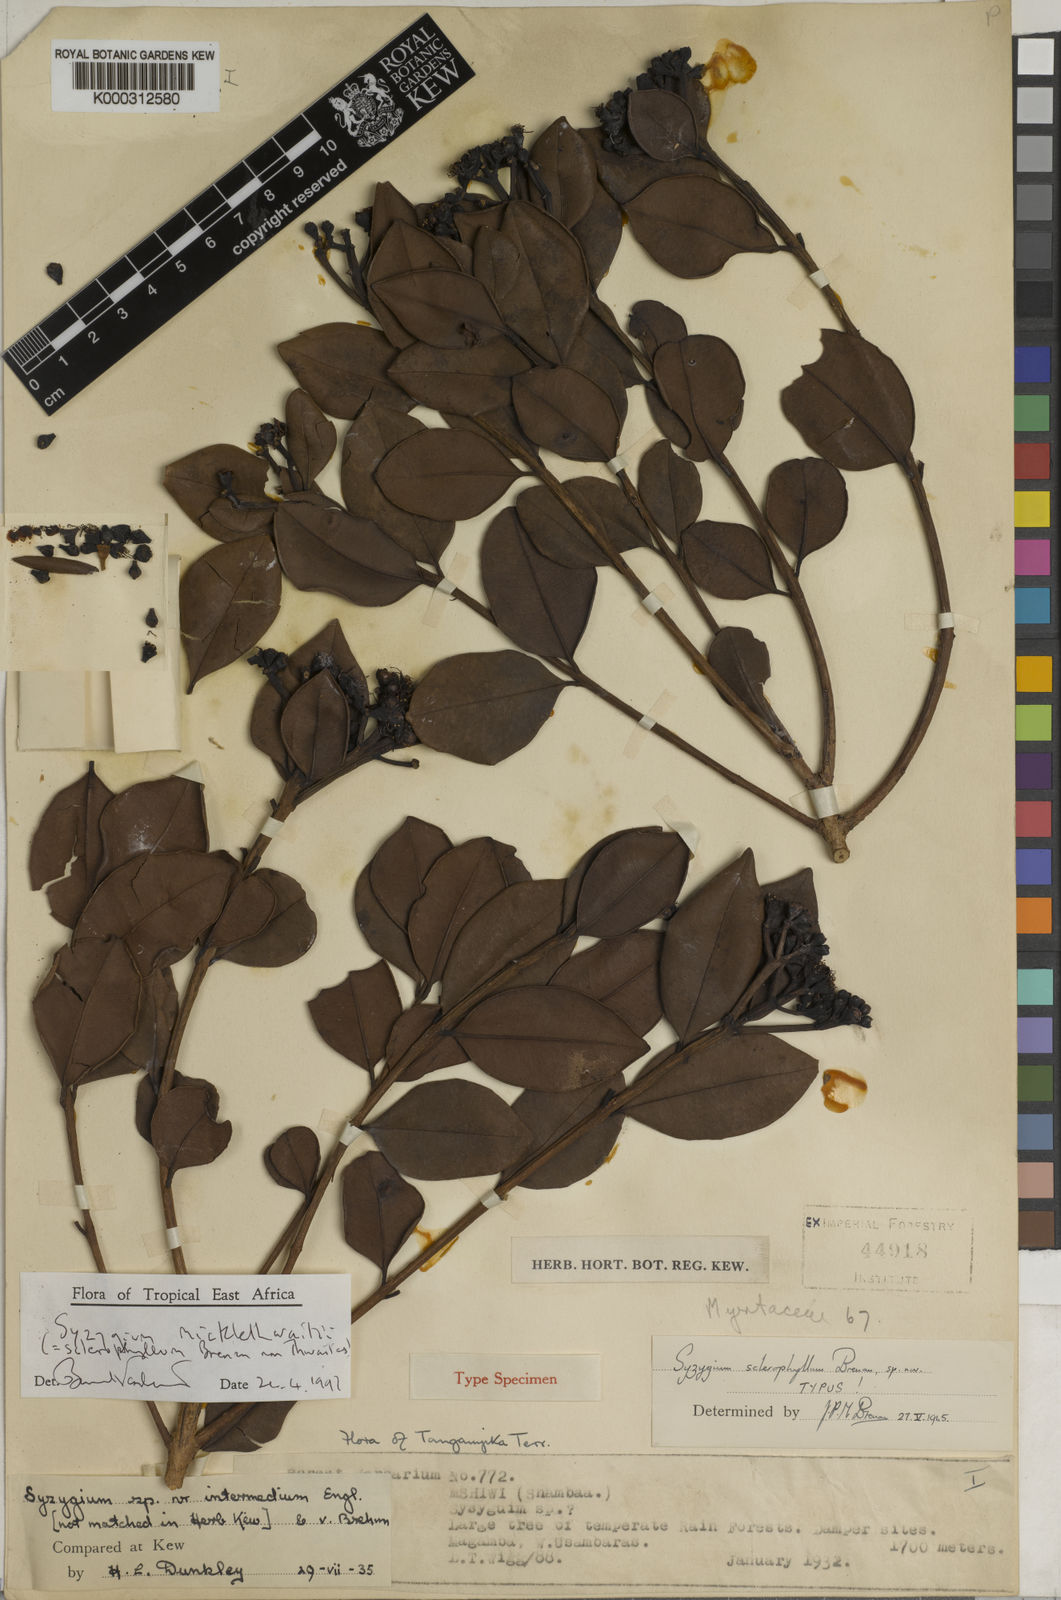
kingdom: Plantae
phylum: Tracheophyta
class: Magnoliopsida
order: Myrtales
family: Myrtaceae
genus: Syzygium
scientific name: Syzygium micklethwaitii
